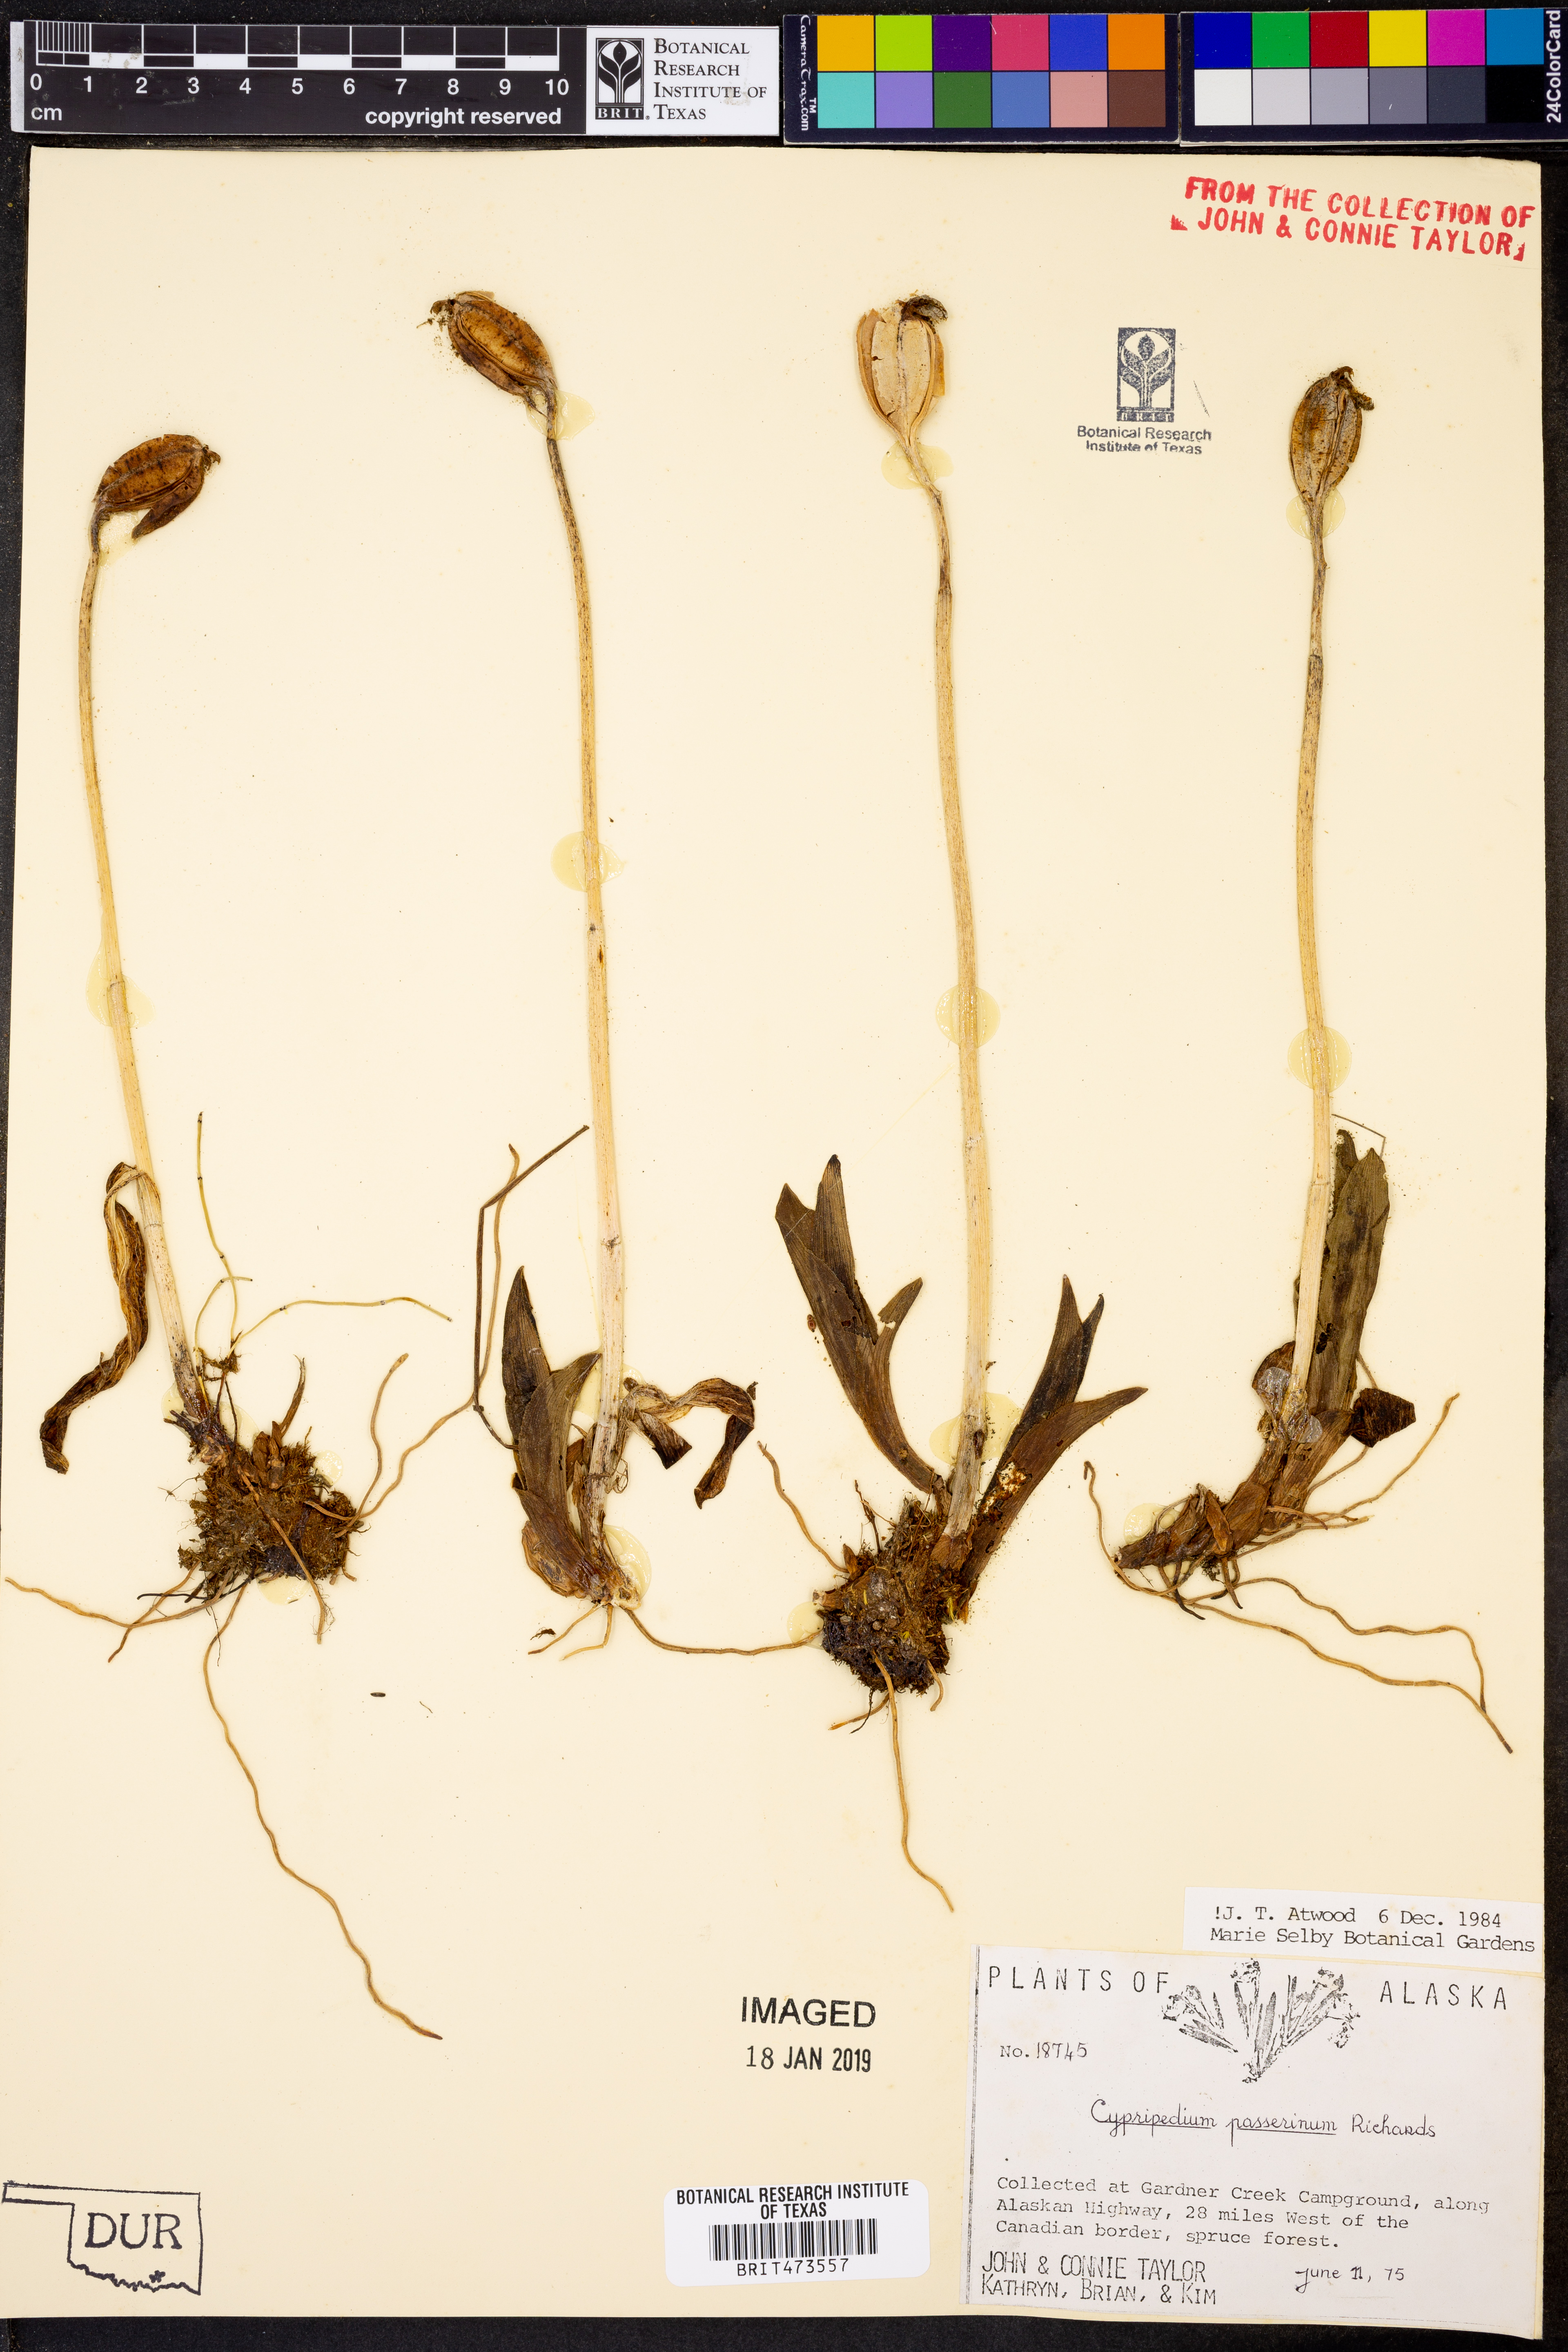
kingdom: Plantae
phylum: Tracheophyta
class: Liliopsida
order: Asparagales
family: Orchidaceae
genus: Cypripedium
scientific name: Cypripedium passerinum
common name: Sparrow's-egg lady's-slipper
